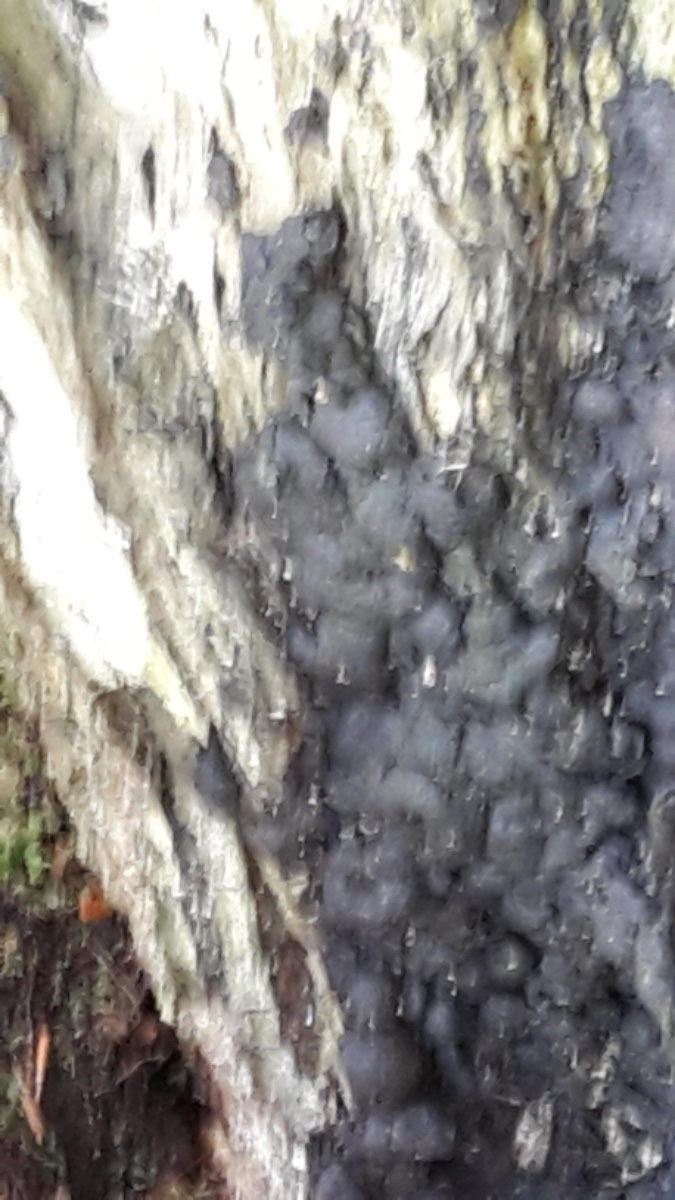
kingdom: Fungi
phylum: Ascomycota
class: Sordariomycetes
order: Xylariales
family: Xylariaceae
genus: Kretzschmaria
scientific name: Kretzschmaria deusta
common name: stor kulsvamp
